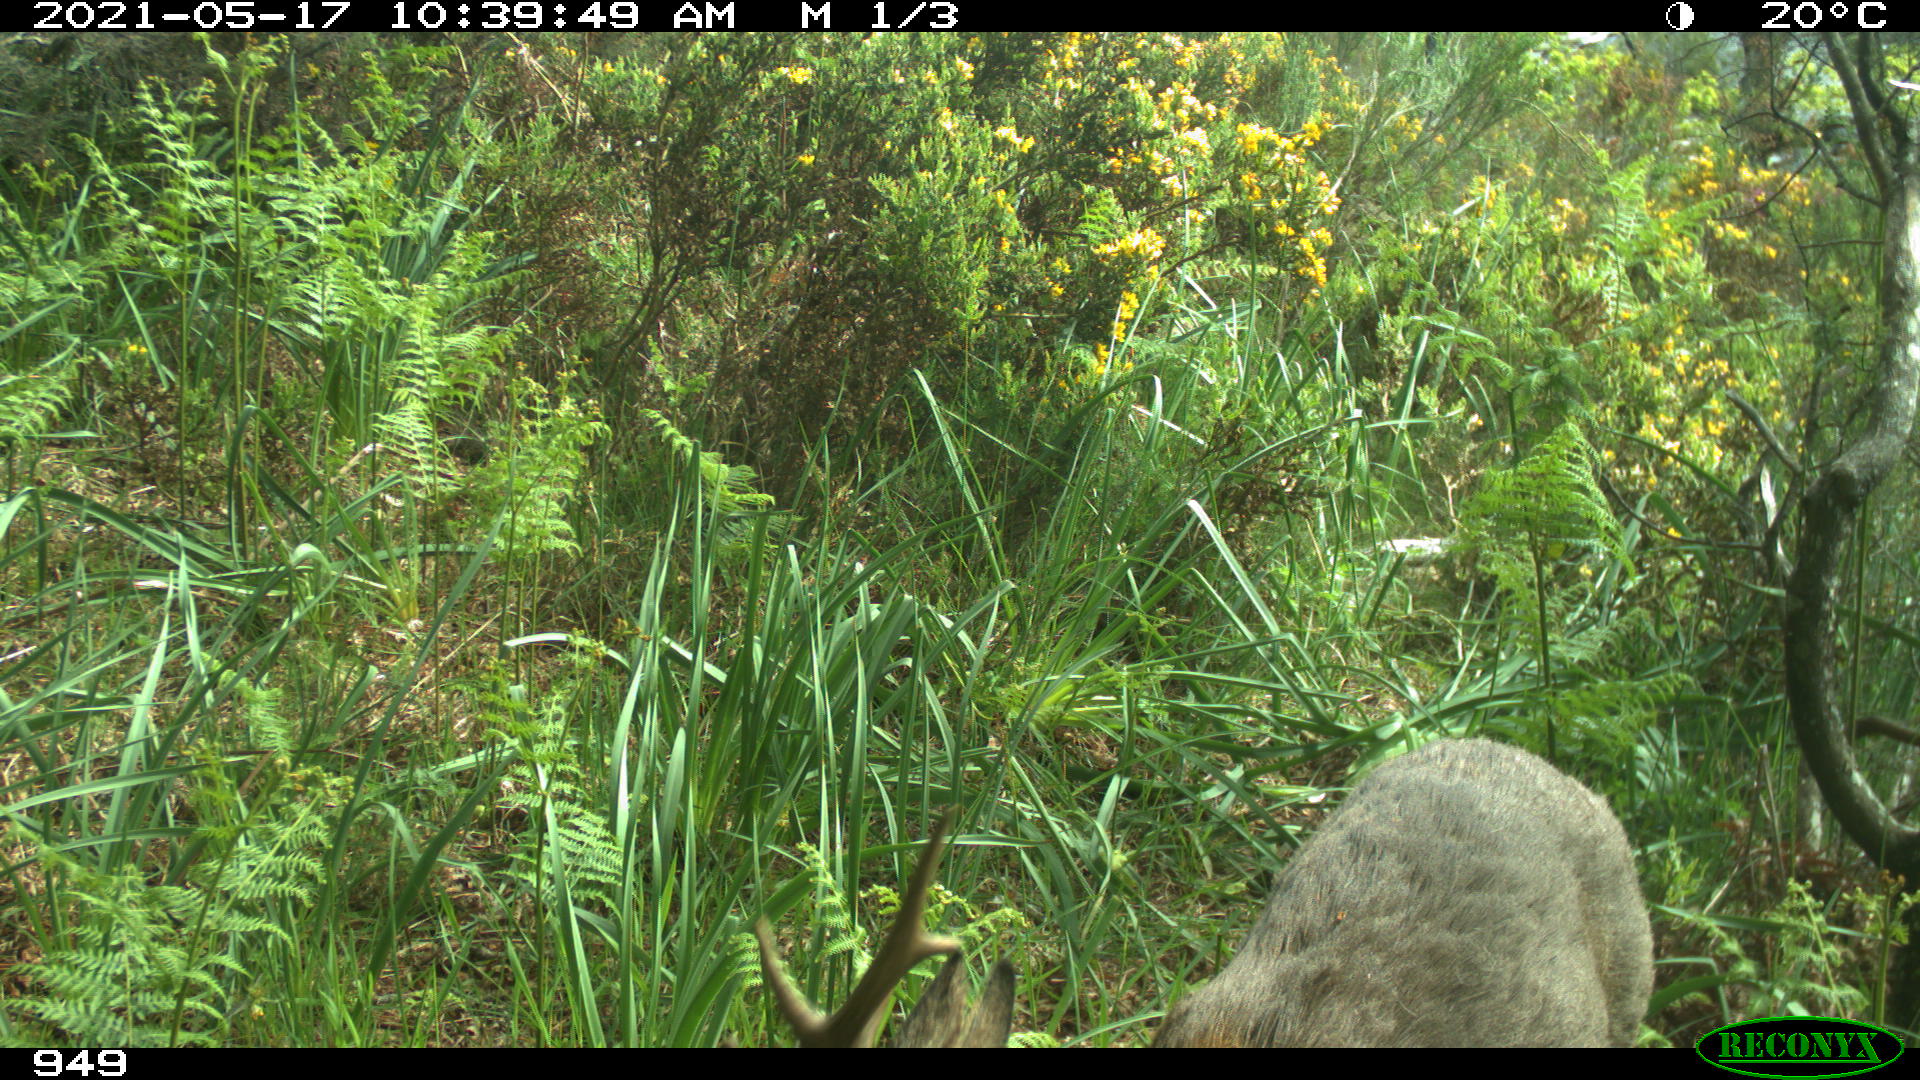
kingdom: Animalia
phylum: Chordata
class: Mammalia
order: Artiodactyla
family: Cervidae
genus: Capreolus
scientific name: Capreolus capreolus
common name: Western roe deer
